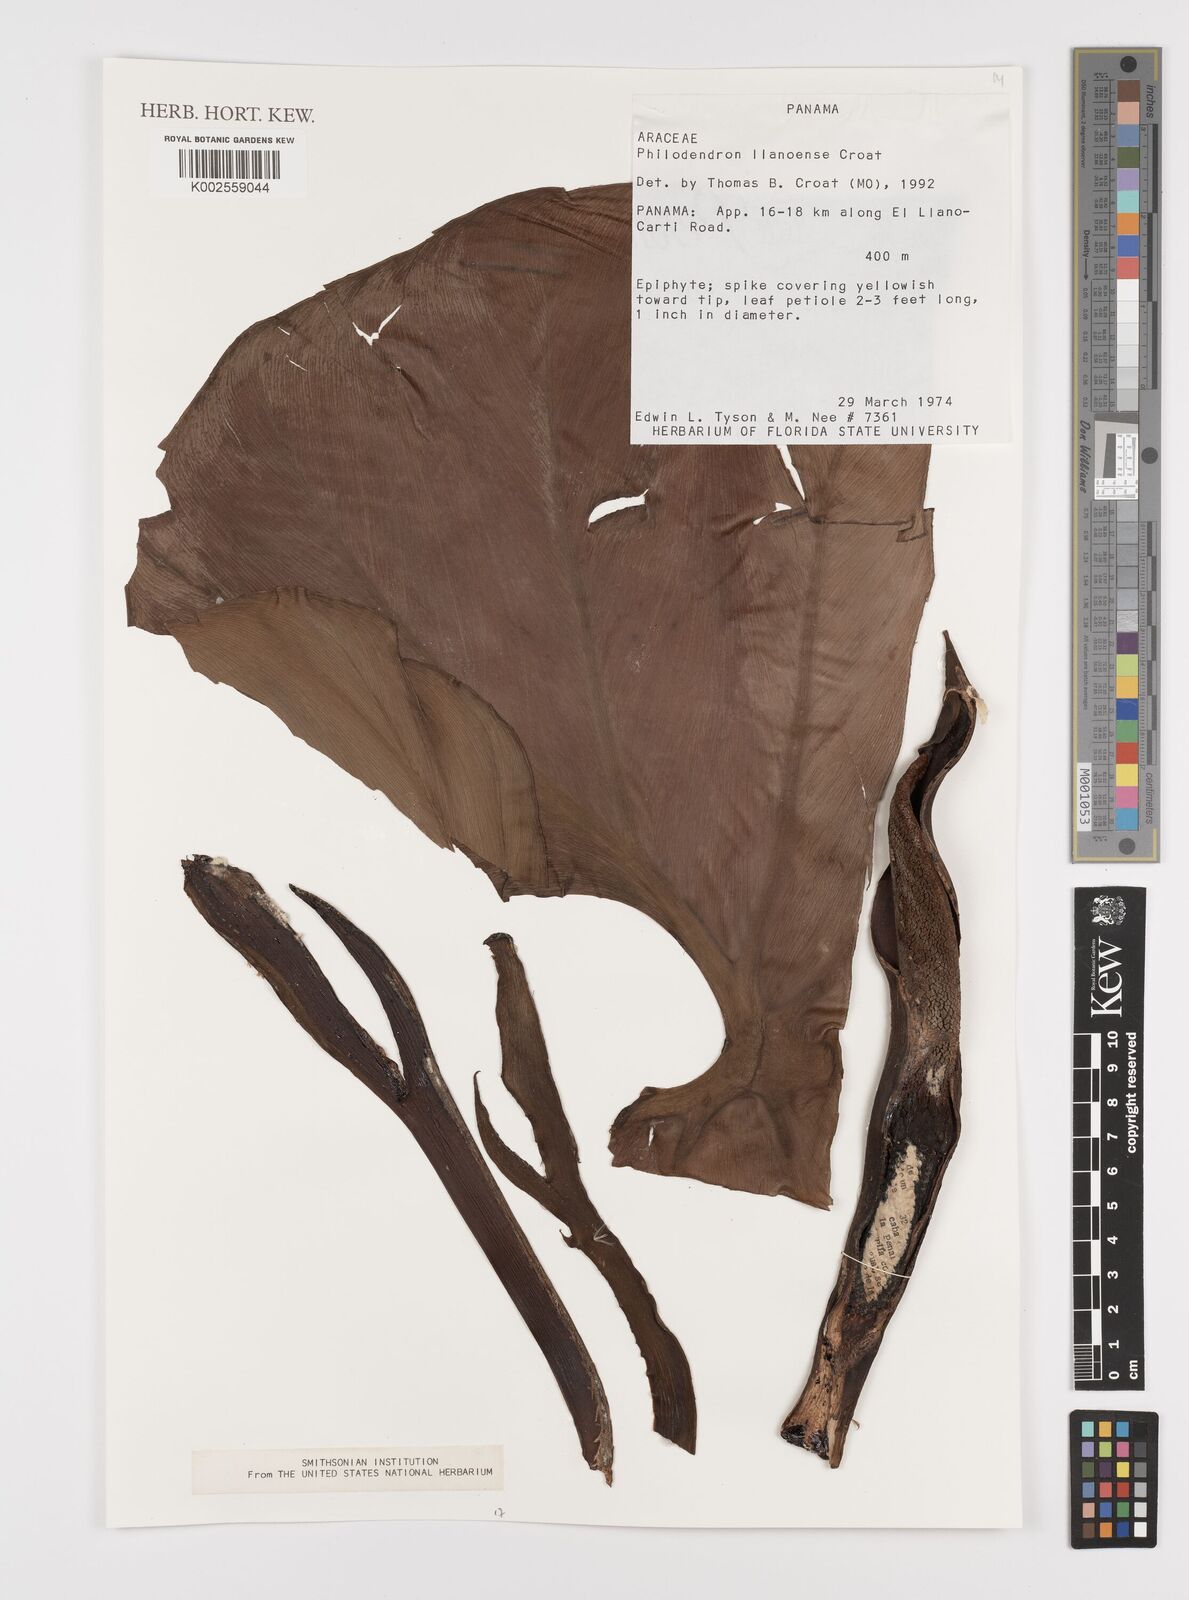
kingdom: Plantae
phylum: Tracheophyta
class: Liliopsida
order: Alismatales
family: Araceae
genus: Philodendron
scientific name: Philodendron llanense
